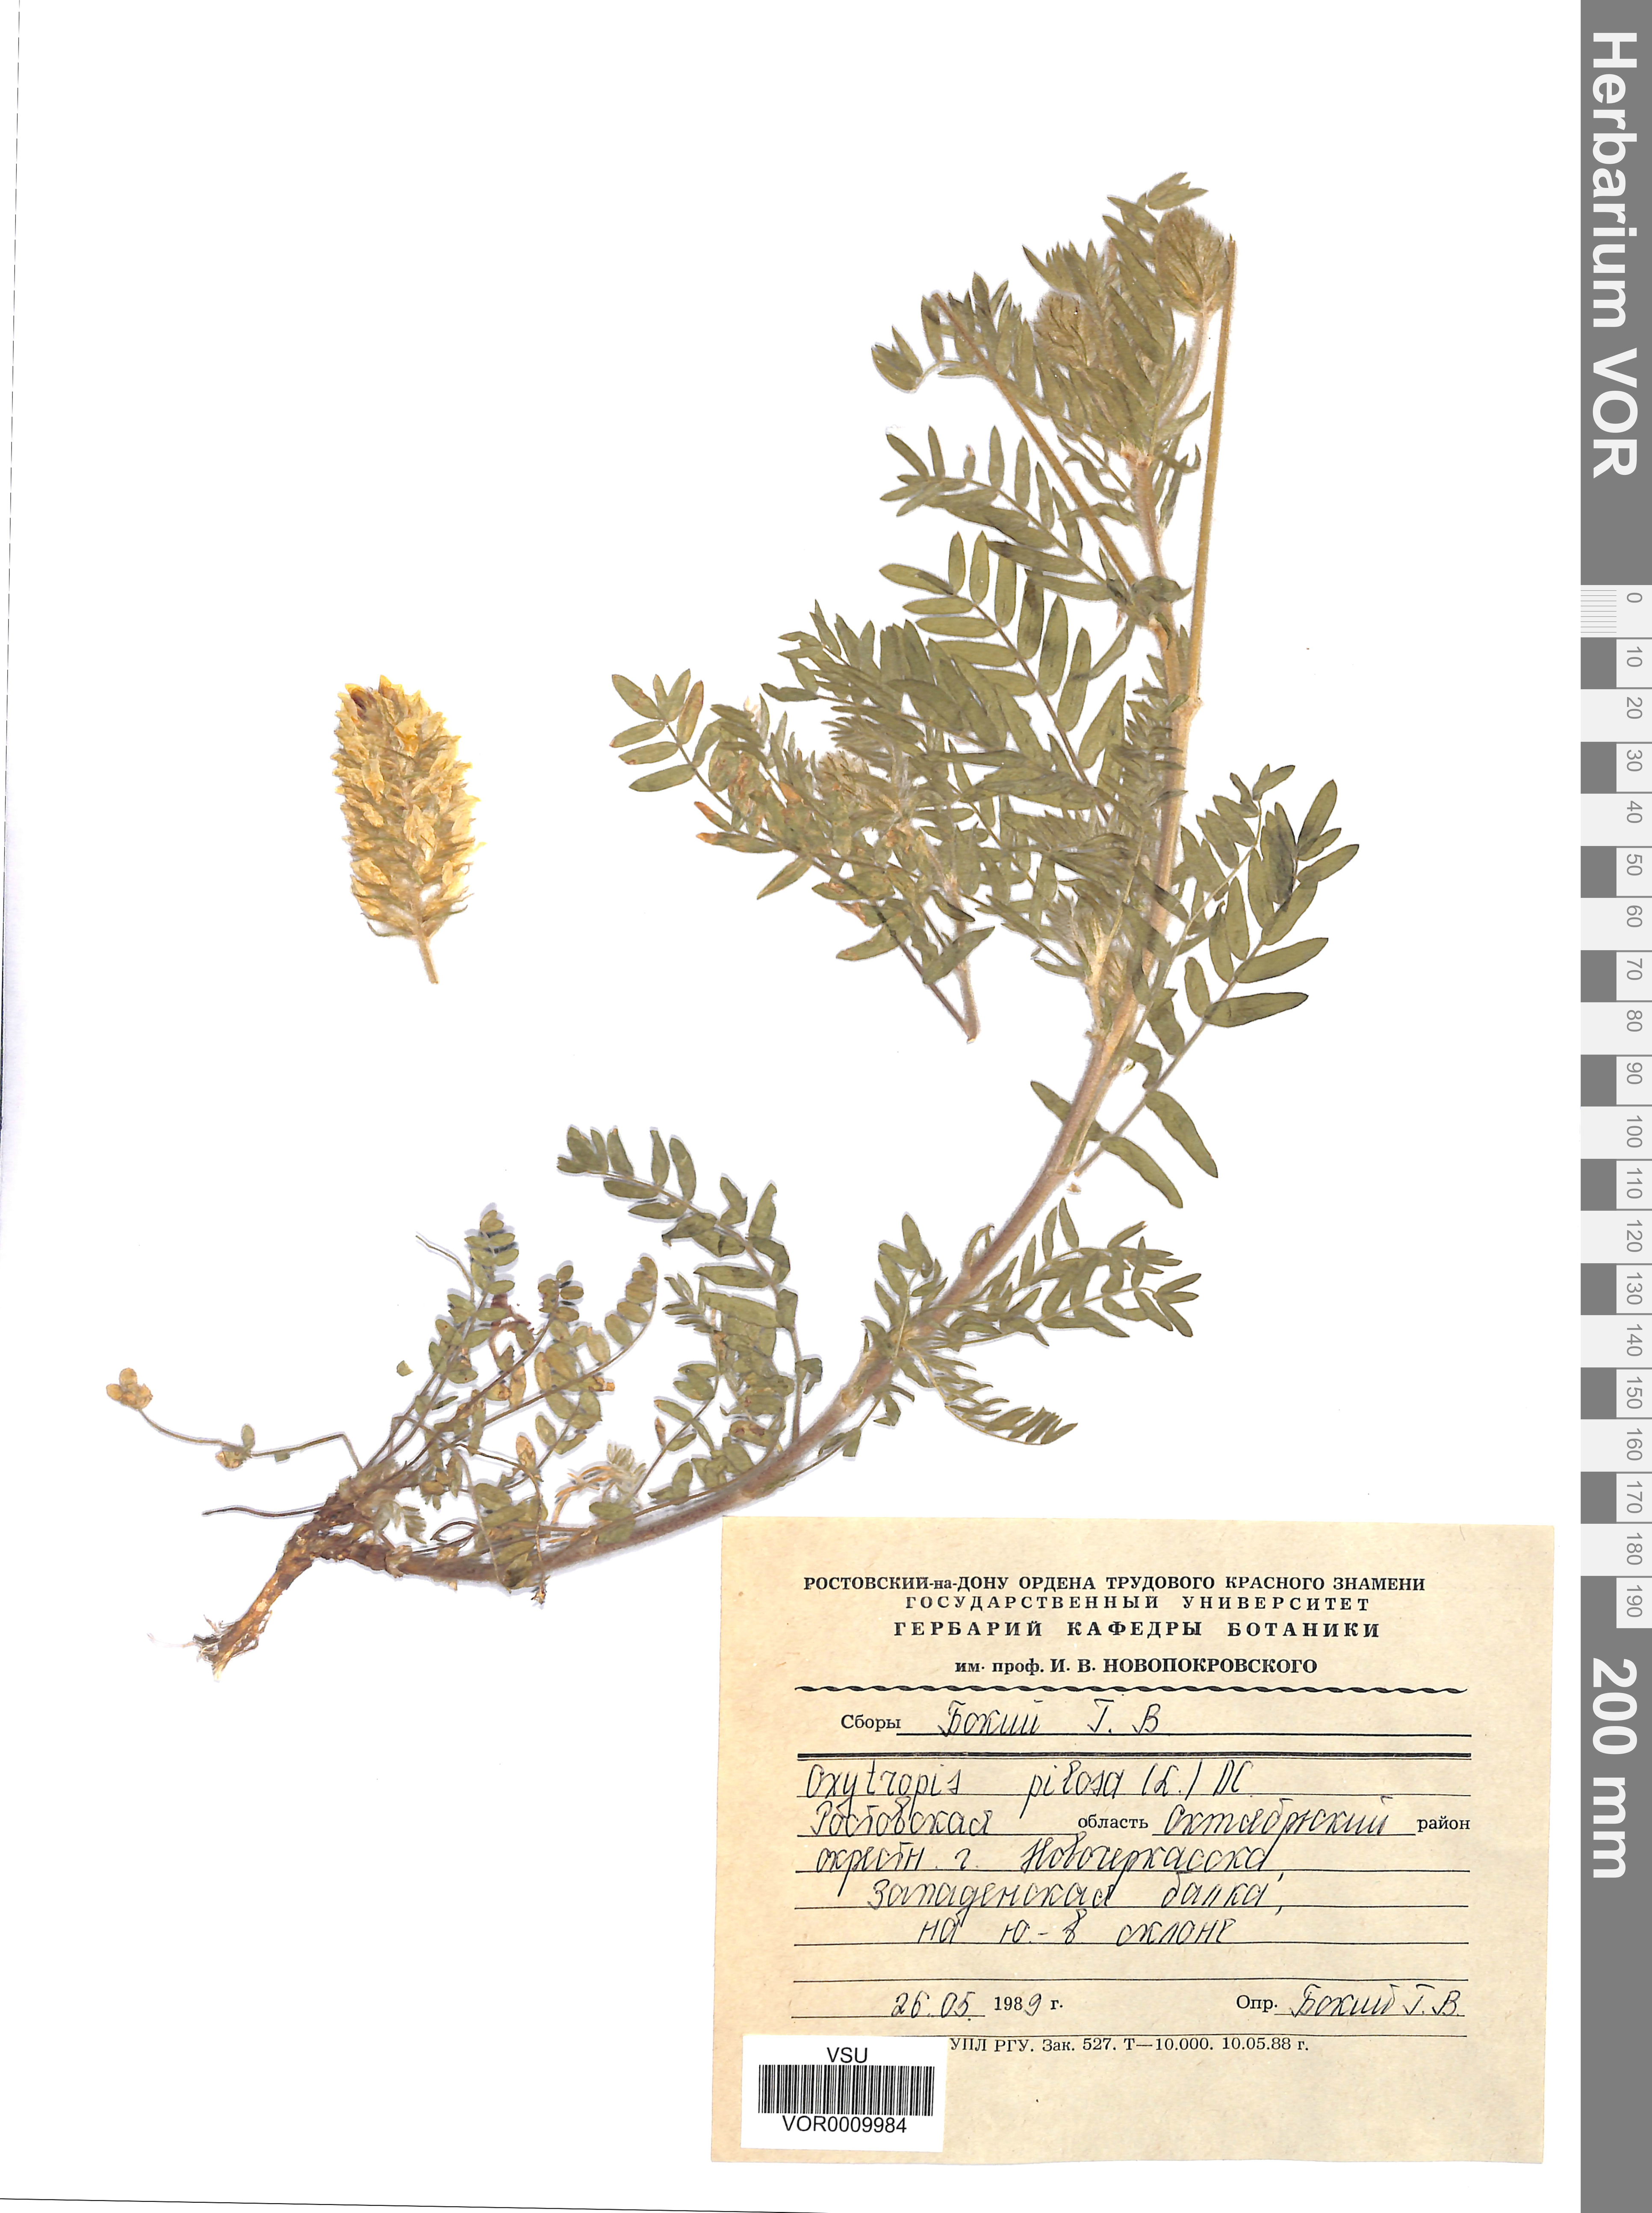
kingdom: Plantae
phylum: Tracheophyta
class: Magnoliopsida
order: Fabales
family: Fabaceae
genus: Oxytropis
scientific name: Oxytropis pilosa
